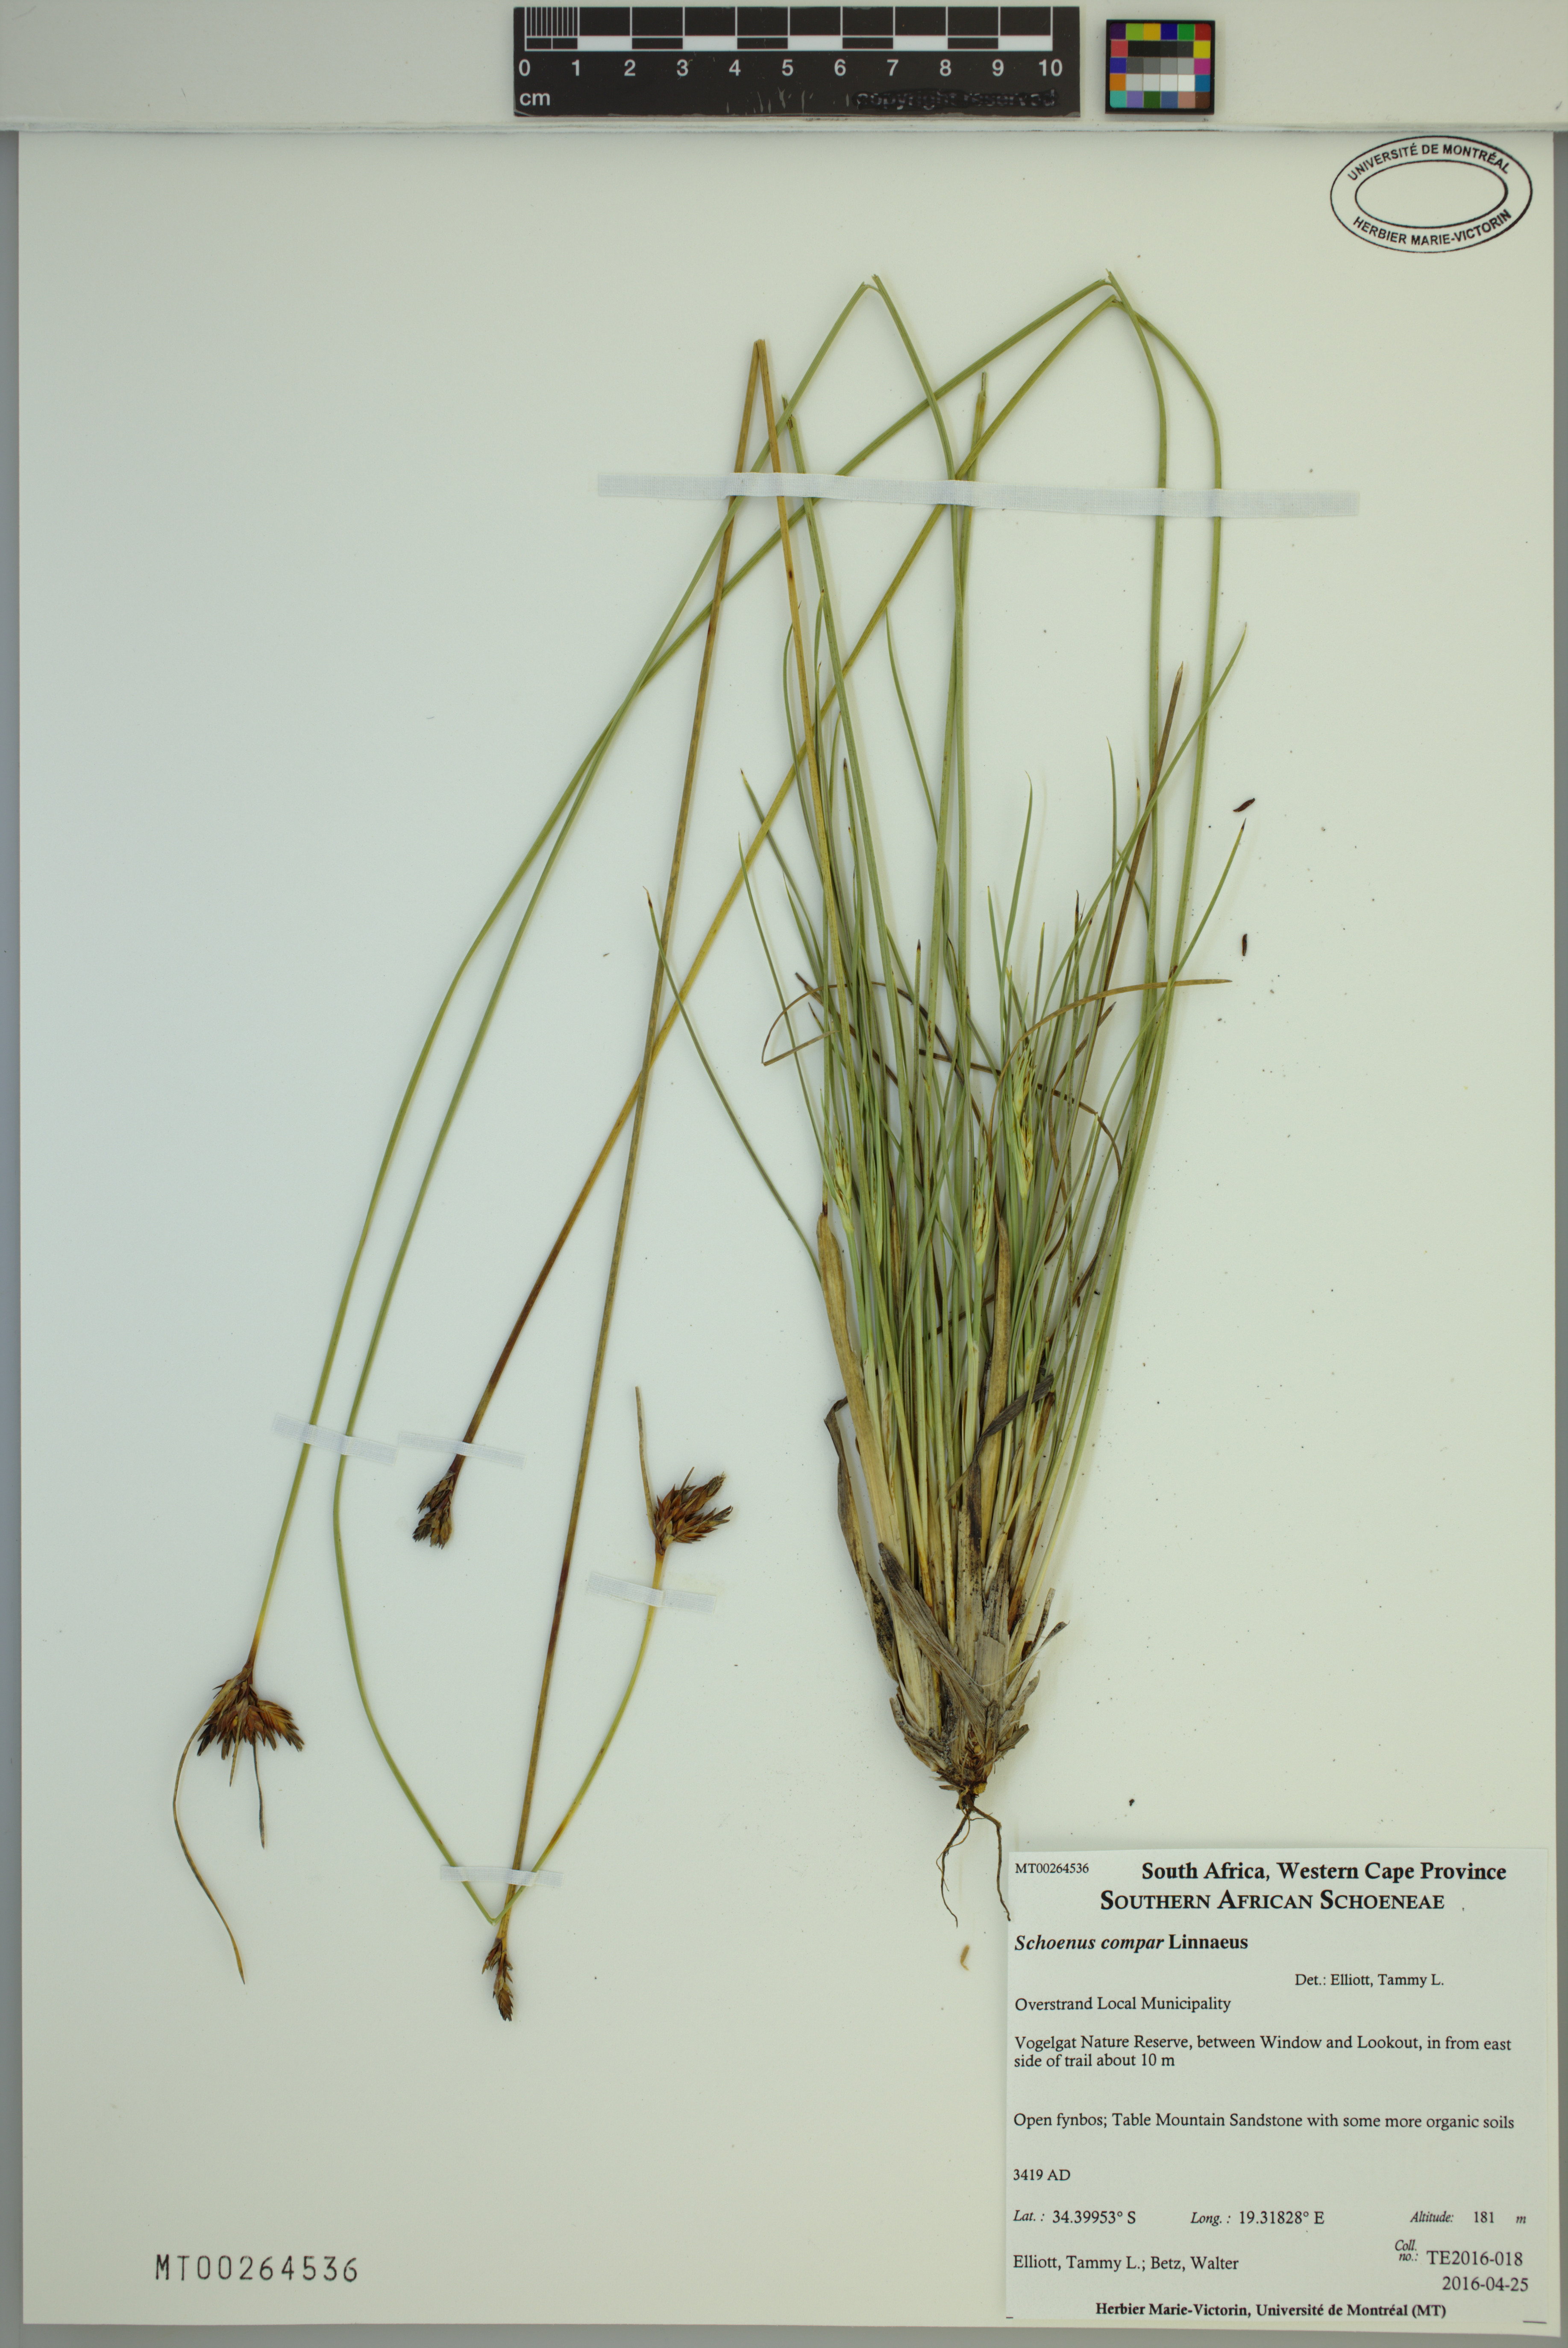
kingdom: Plantae
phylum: Tracheophyta
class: Liliopsida
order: Poales
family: Cyperaceae
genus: Schoenus
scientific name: Schoenus compar
